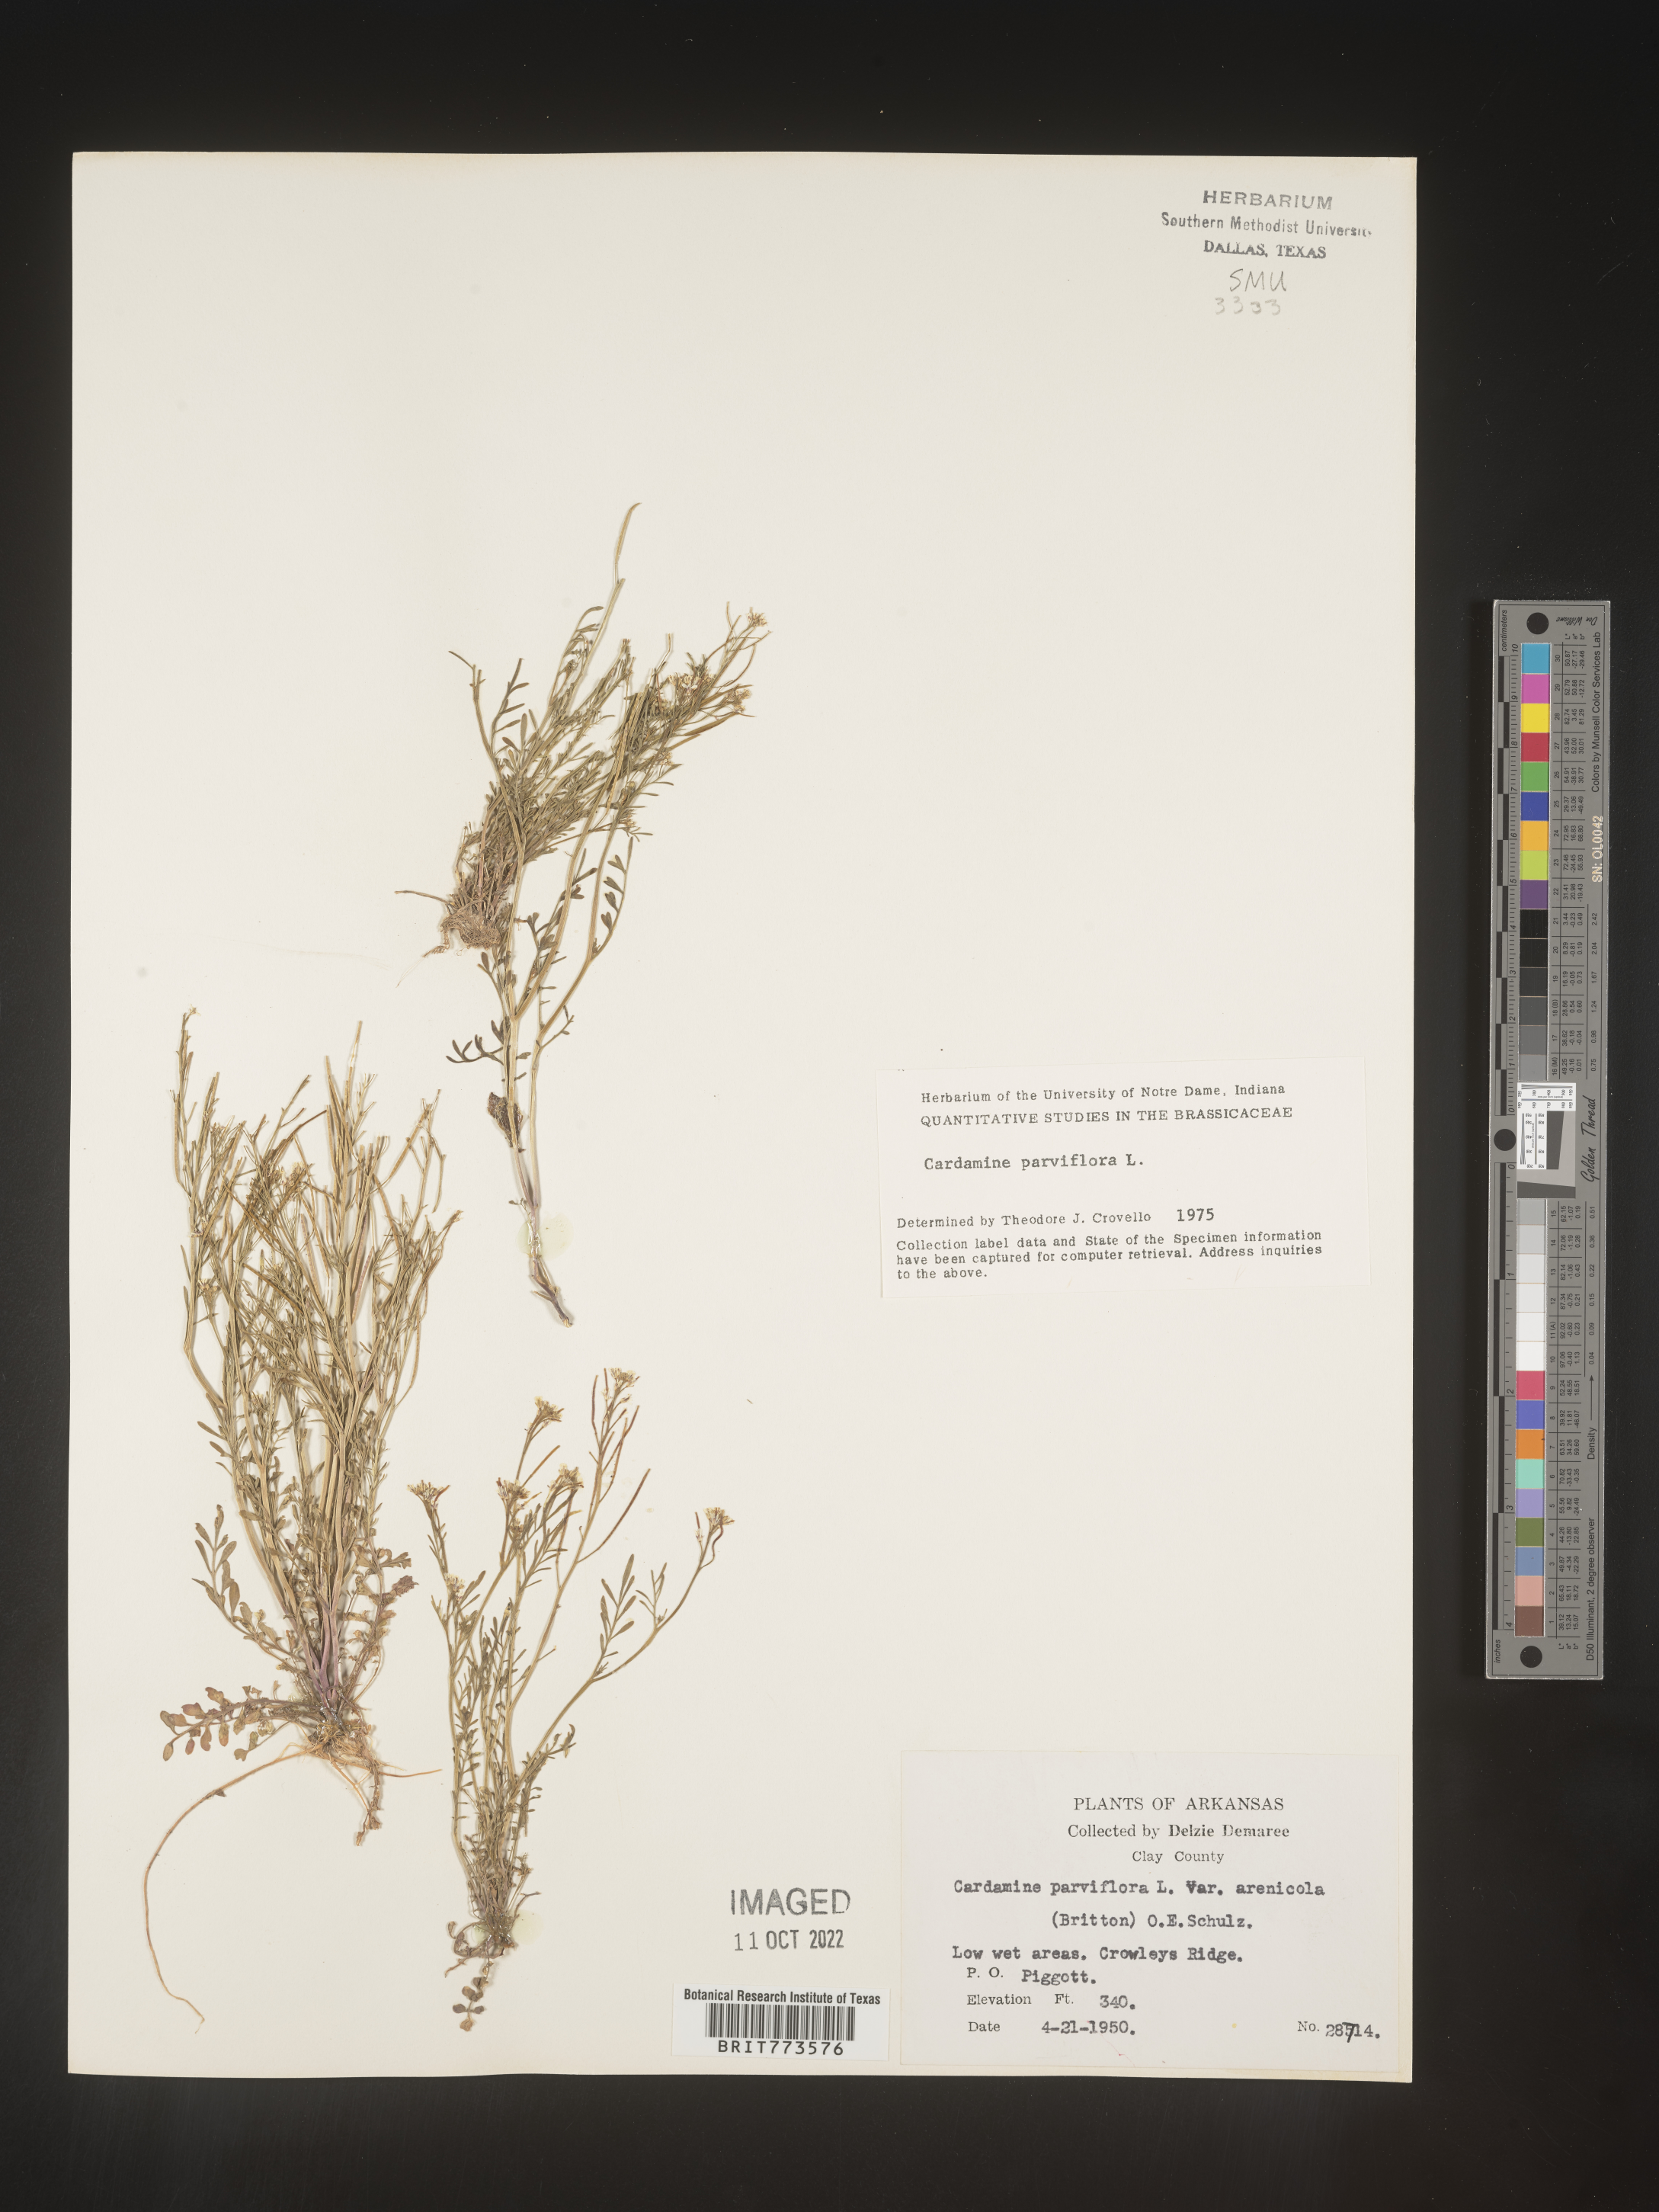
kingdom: Plantae
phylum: Tracheophyta
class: Magnoliopsida
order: Brassicales
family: Brassicaceae
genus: Cardamine
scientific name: Cardamine parviflora
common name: Sand bittercress
